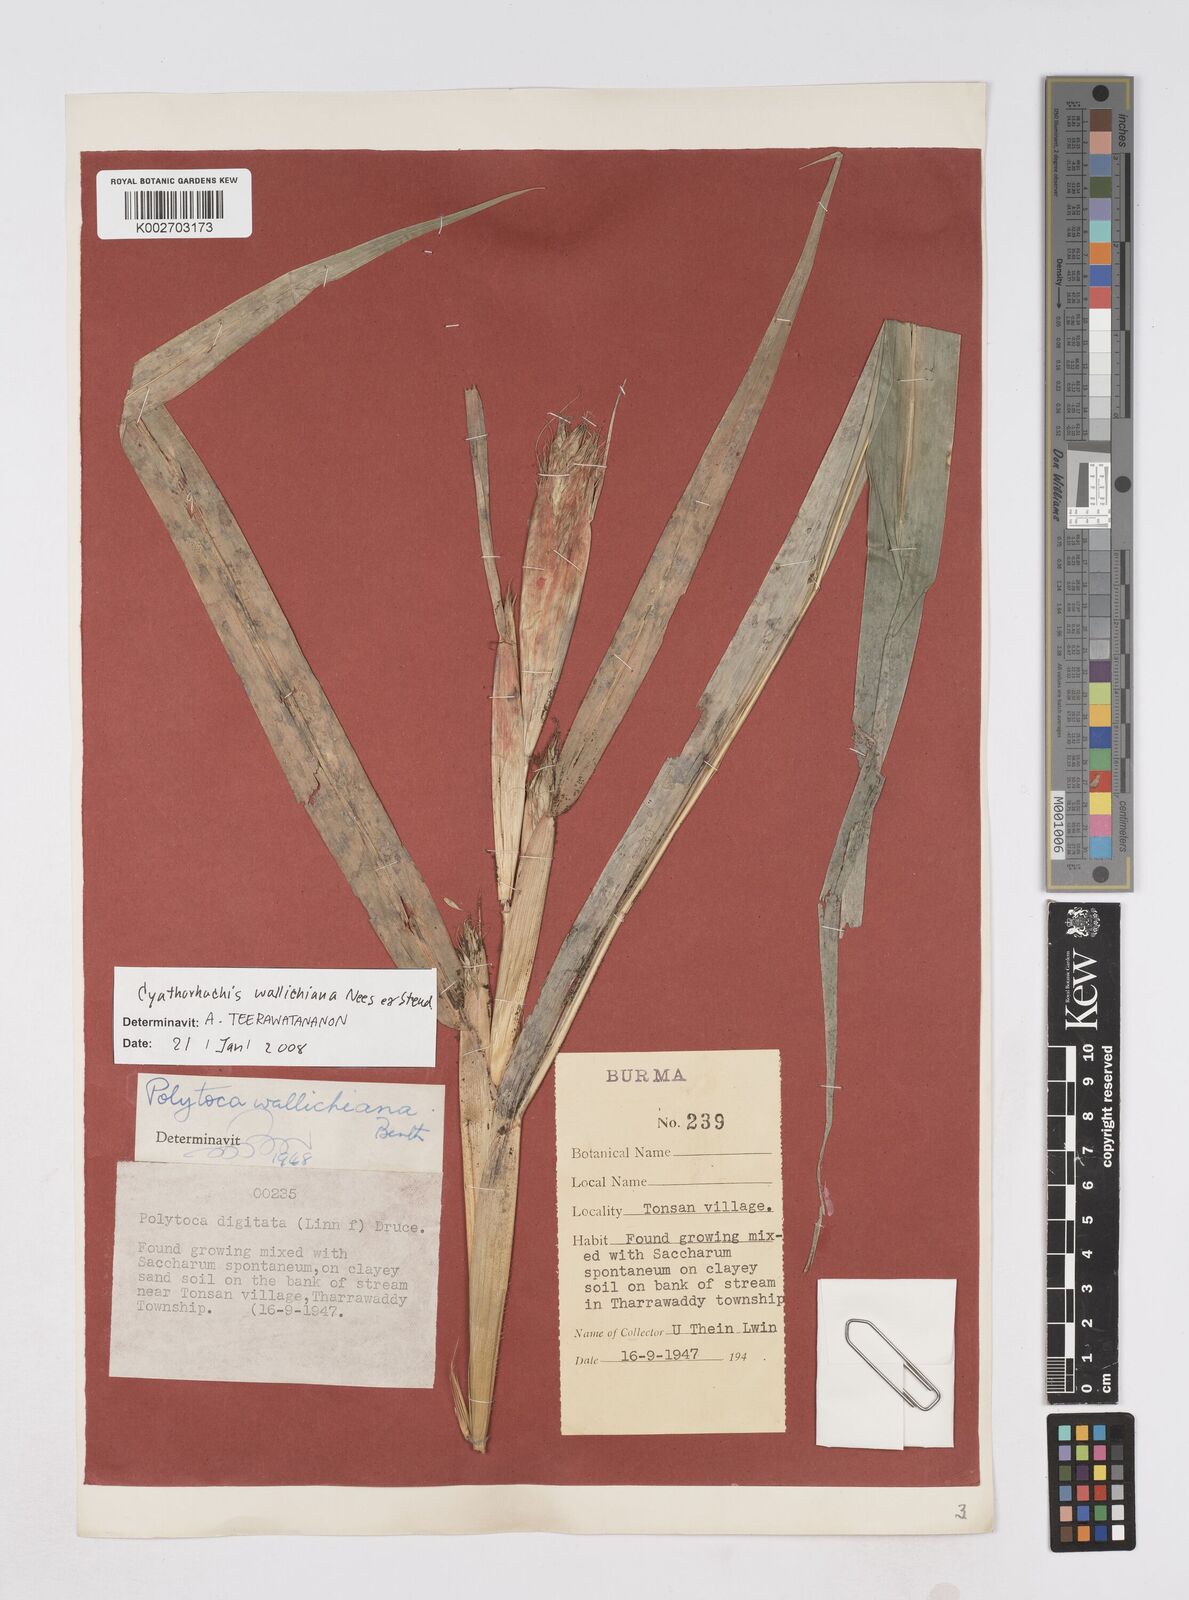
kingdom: Plantae
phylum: Tracheophyta
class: Liliopsida
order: Poales
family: Poaceae
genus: Polytoca
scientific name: Polytoca wallichiana
